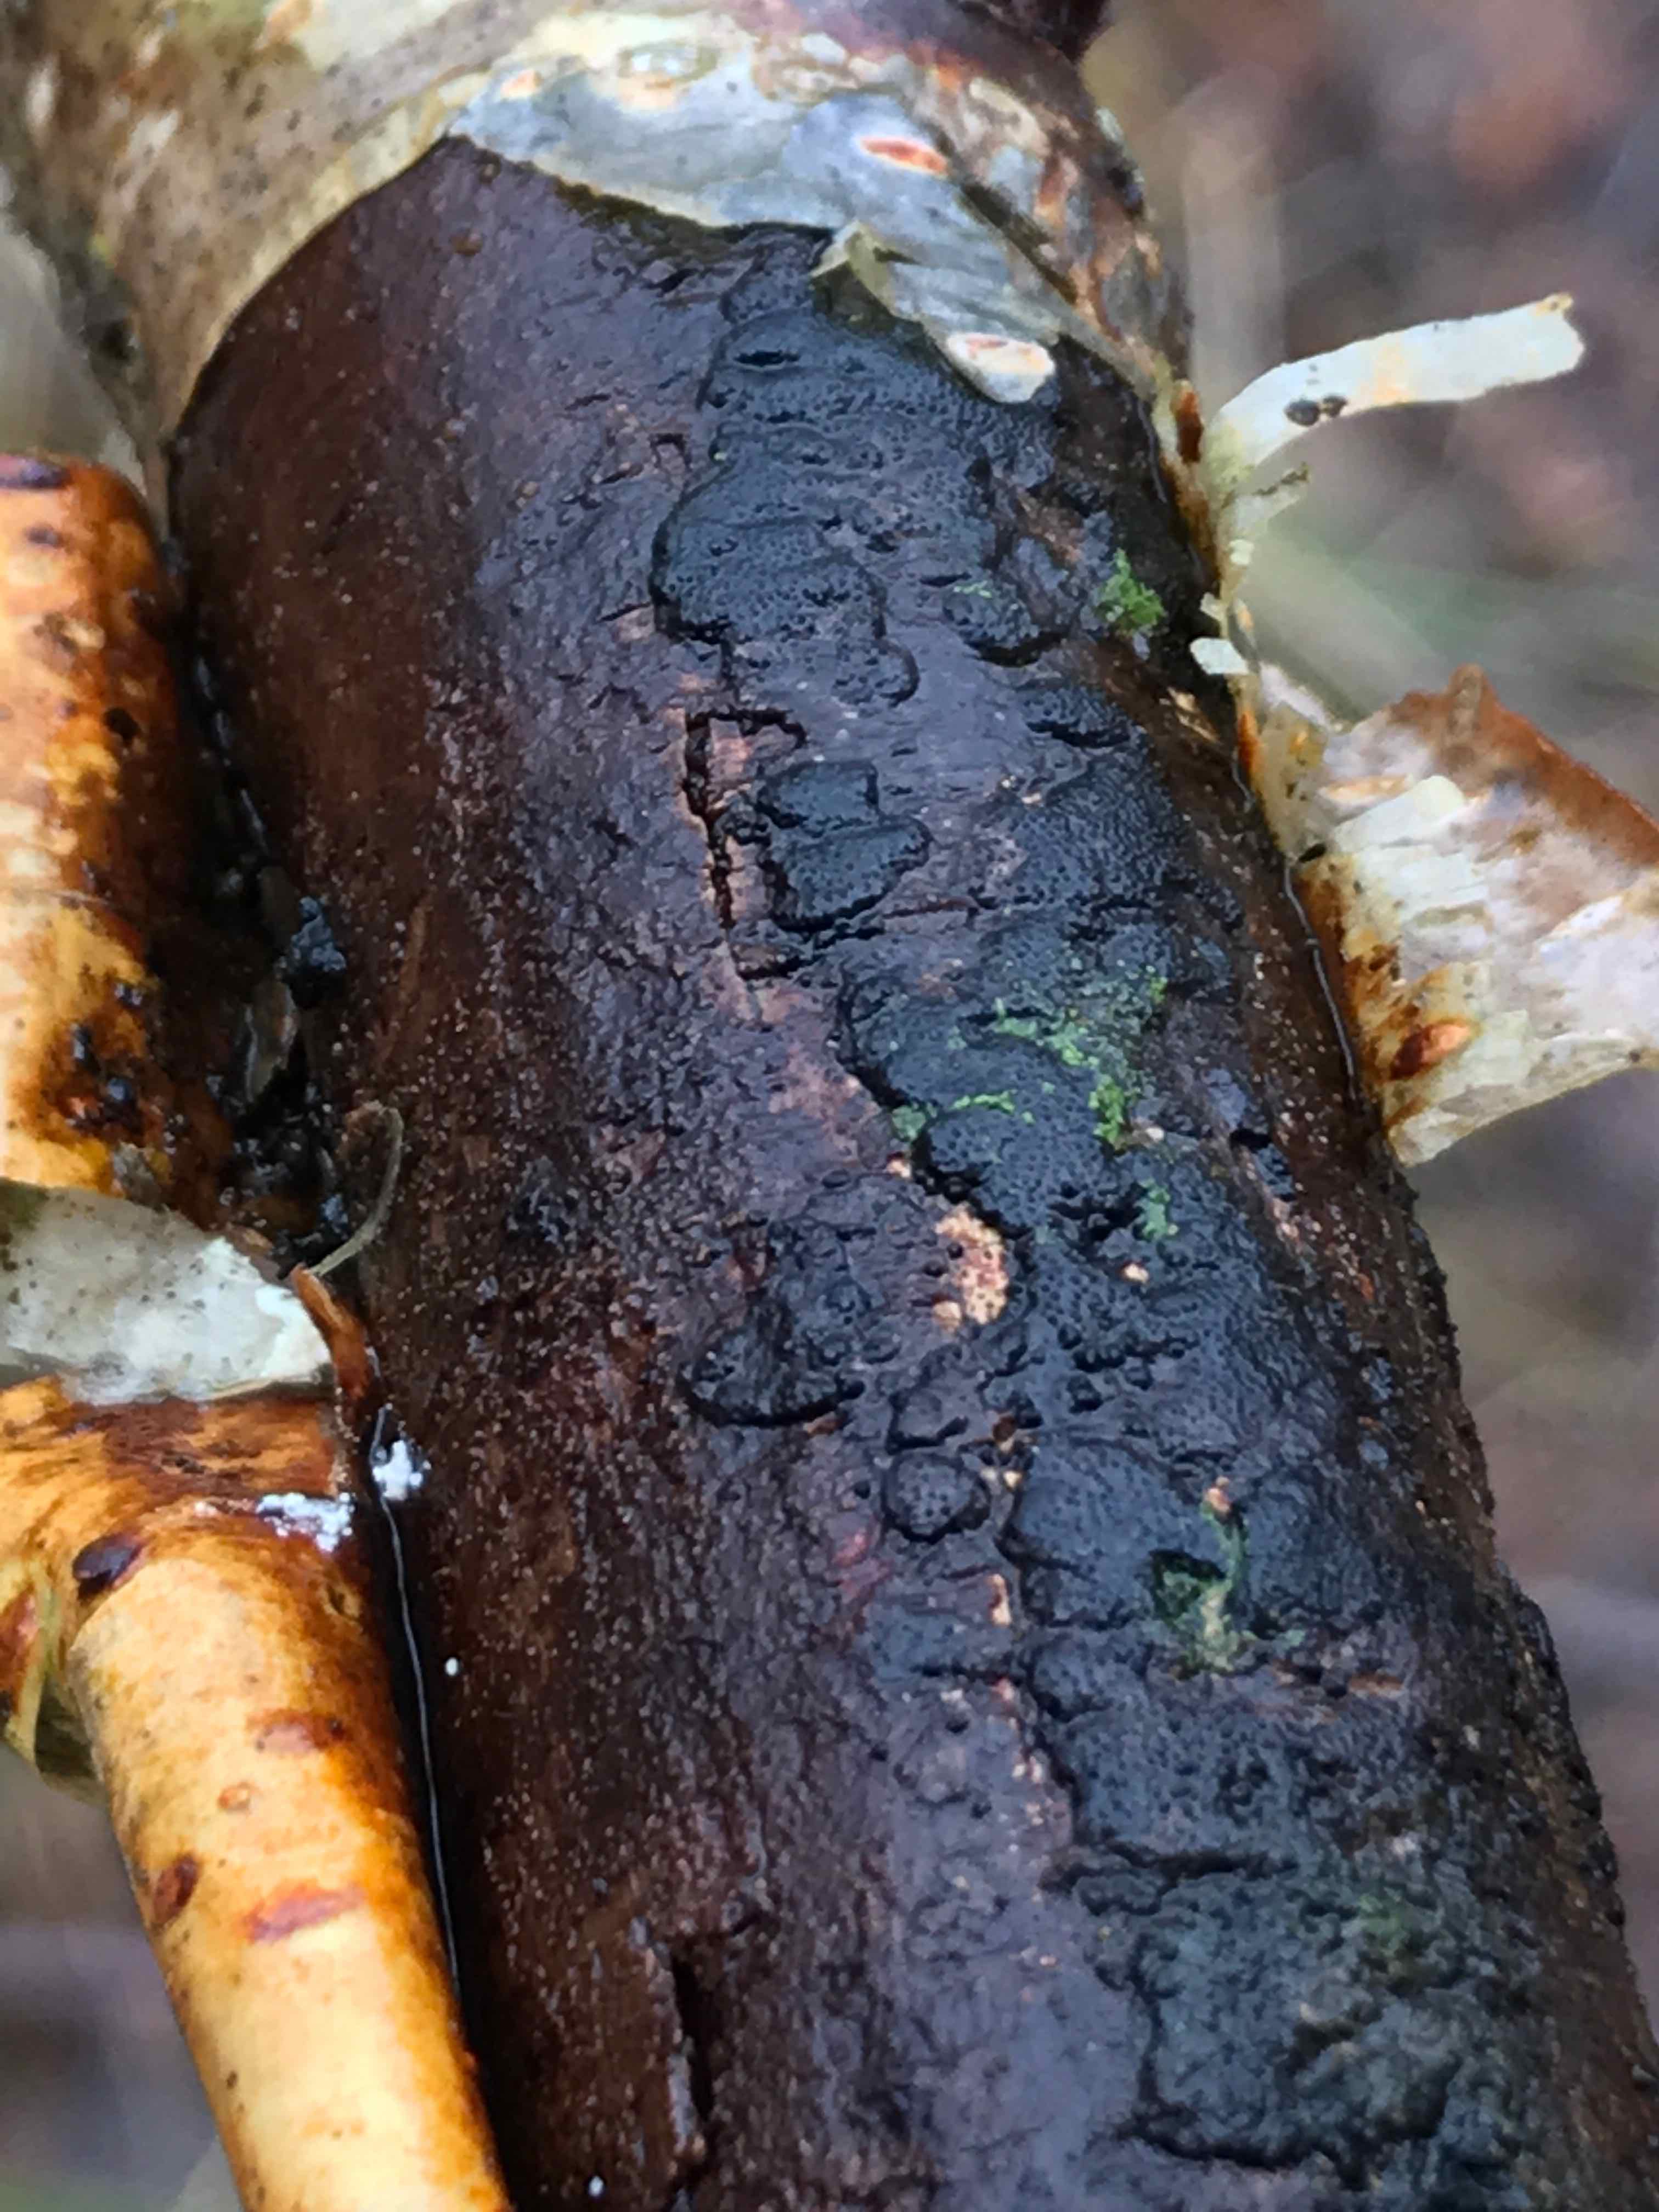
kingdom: Fungi
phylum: Ascomycota
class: Sordariomycetes
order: Xylariales
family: Diatrypaceae
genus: Diatrype
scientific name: Diatrype
